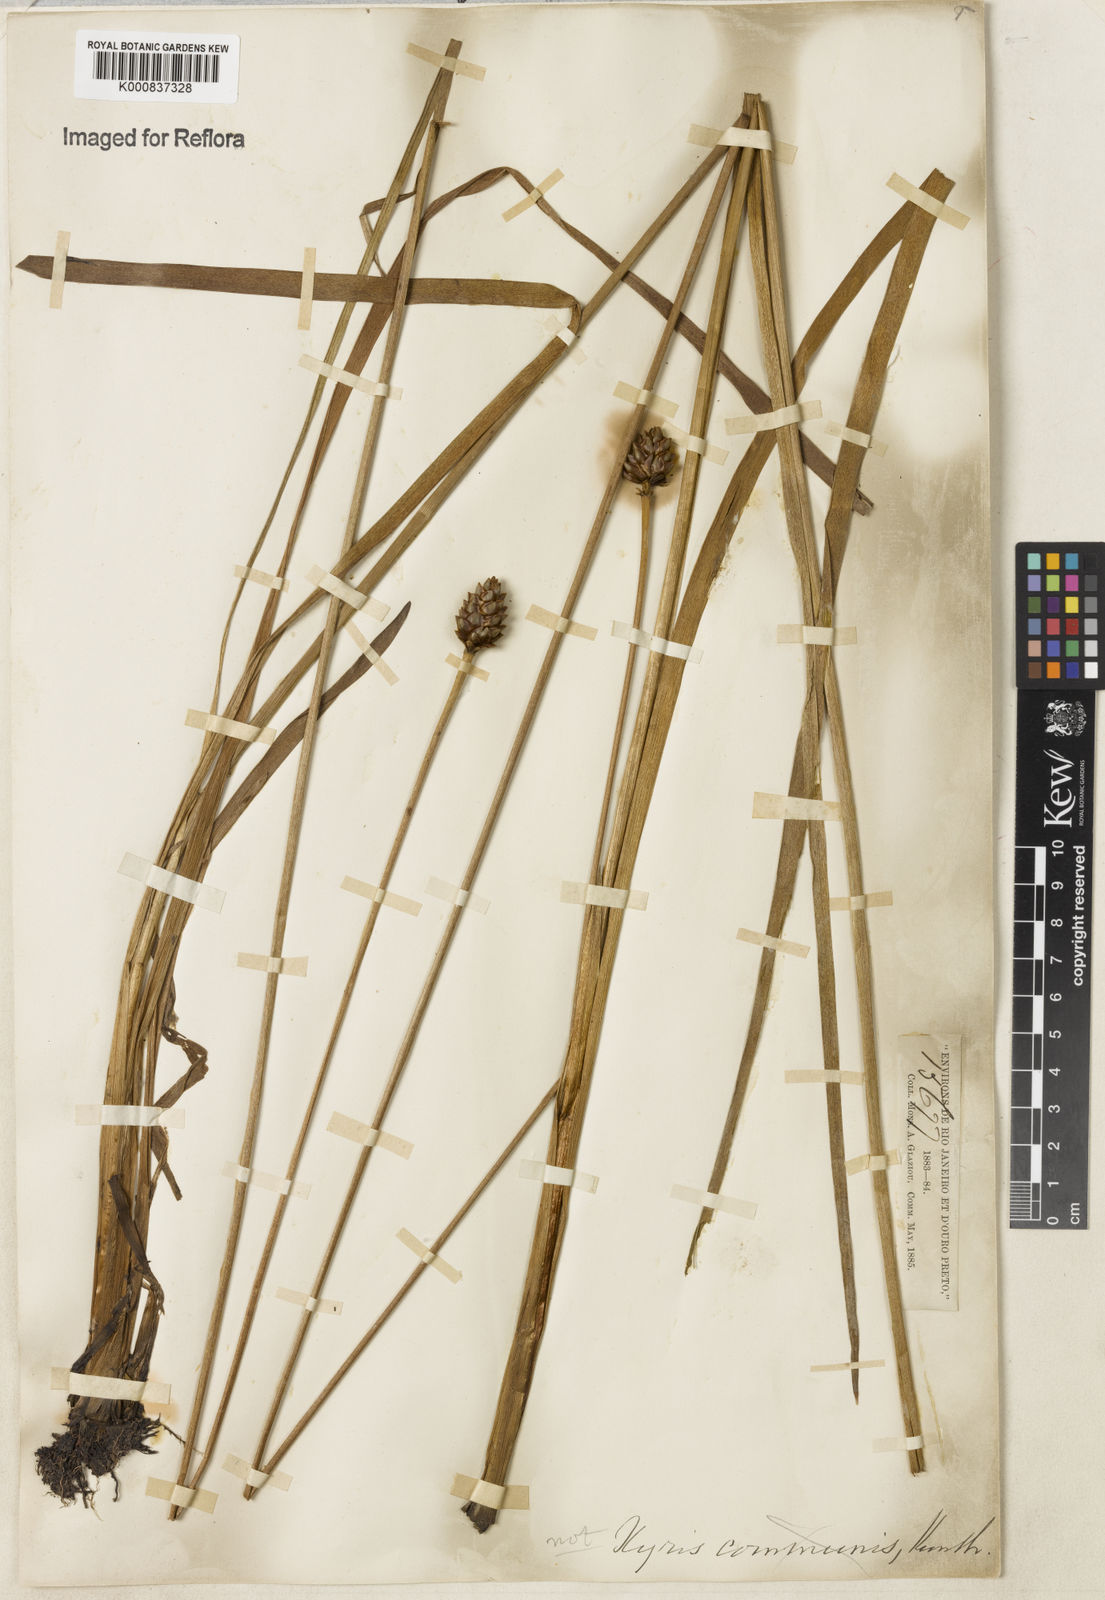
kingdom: Plantae
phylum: Tracheophyta
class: Liliopsida
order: Poales
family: Xyridaceae
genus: Xyris
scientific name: Xyris jupicai
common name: Richard's yelloweyed grass
